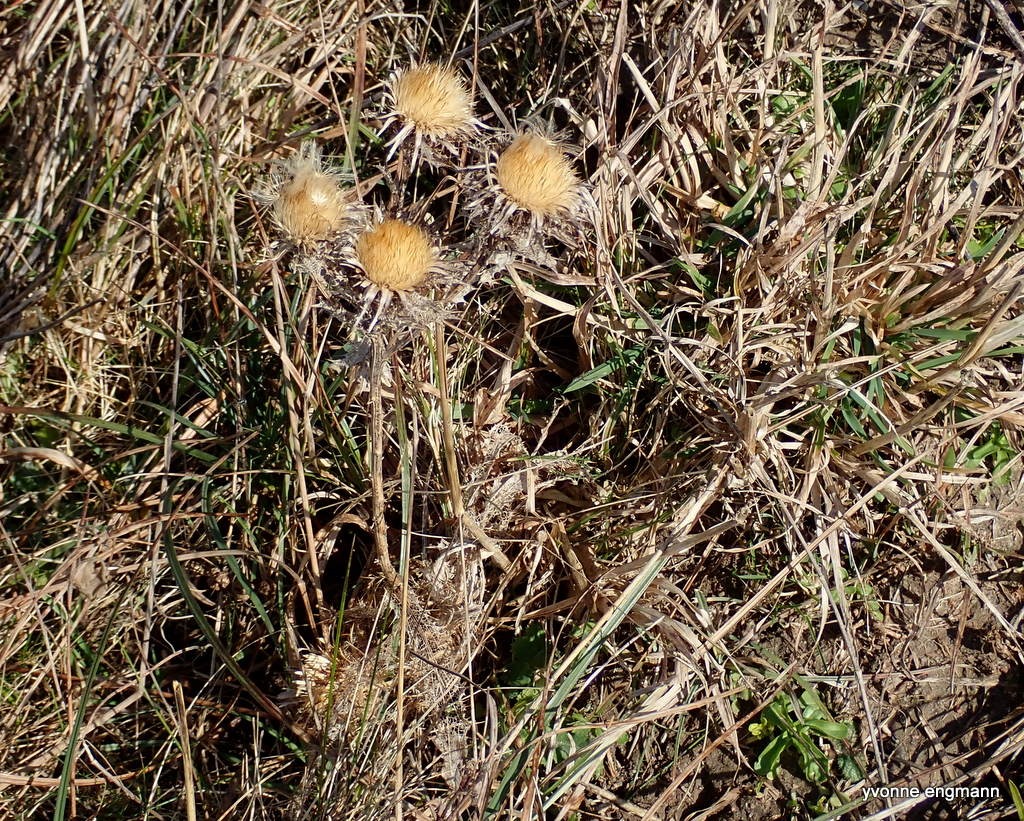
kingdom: Plantae
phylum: Tracheophyta
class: Magnoliopsida
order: Asterales
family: Asteraceae
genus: Carlina
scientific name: Carlina vulgaris
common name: Bakketidsel
